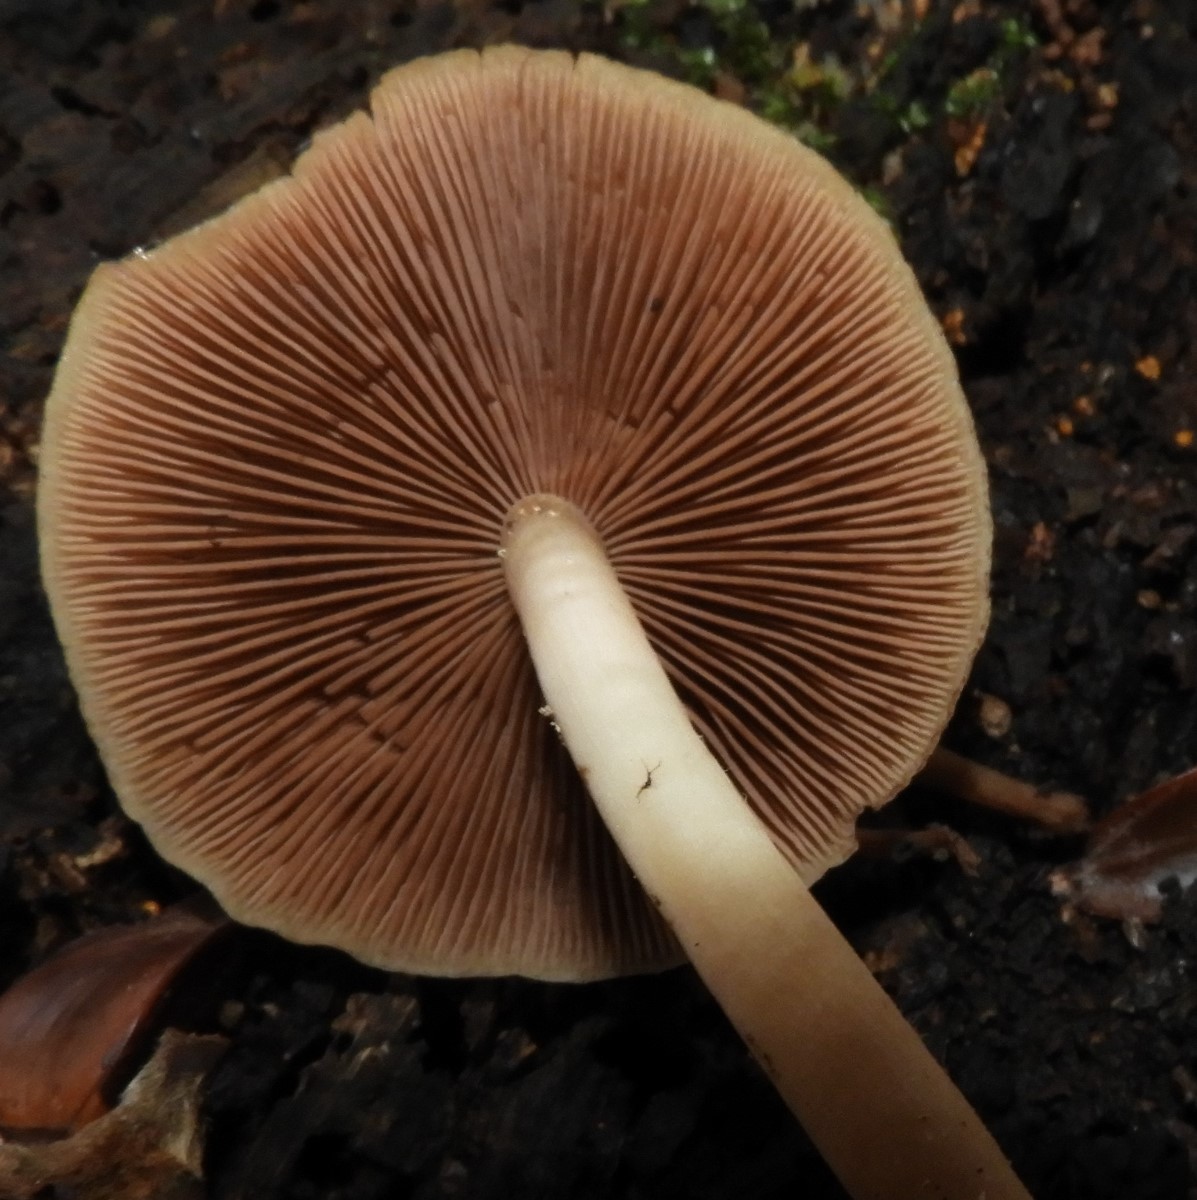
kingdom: Fungi
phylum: Basidiomycota
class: Agaricomycetes
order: Agaricales
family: Psathyrellaceae
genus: Psathyrella
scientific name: Psathyrella piluliformis
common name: lysstokket mørkhat
